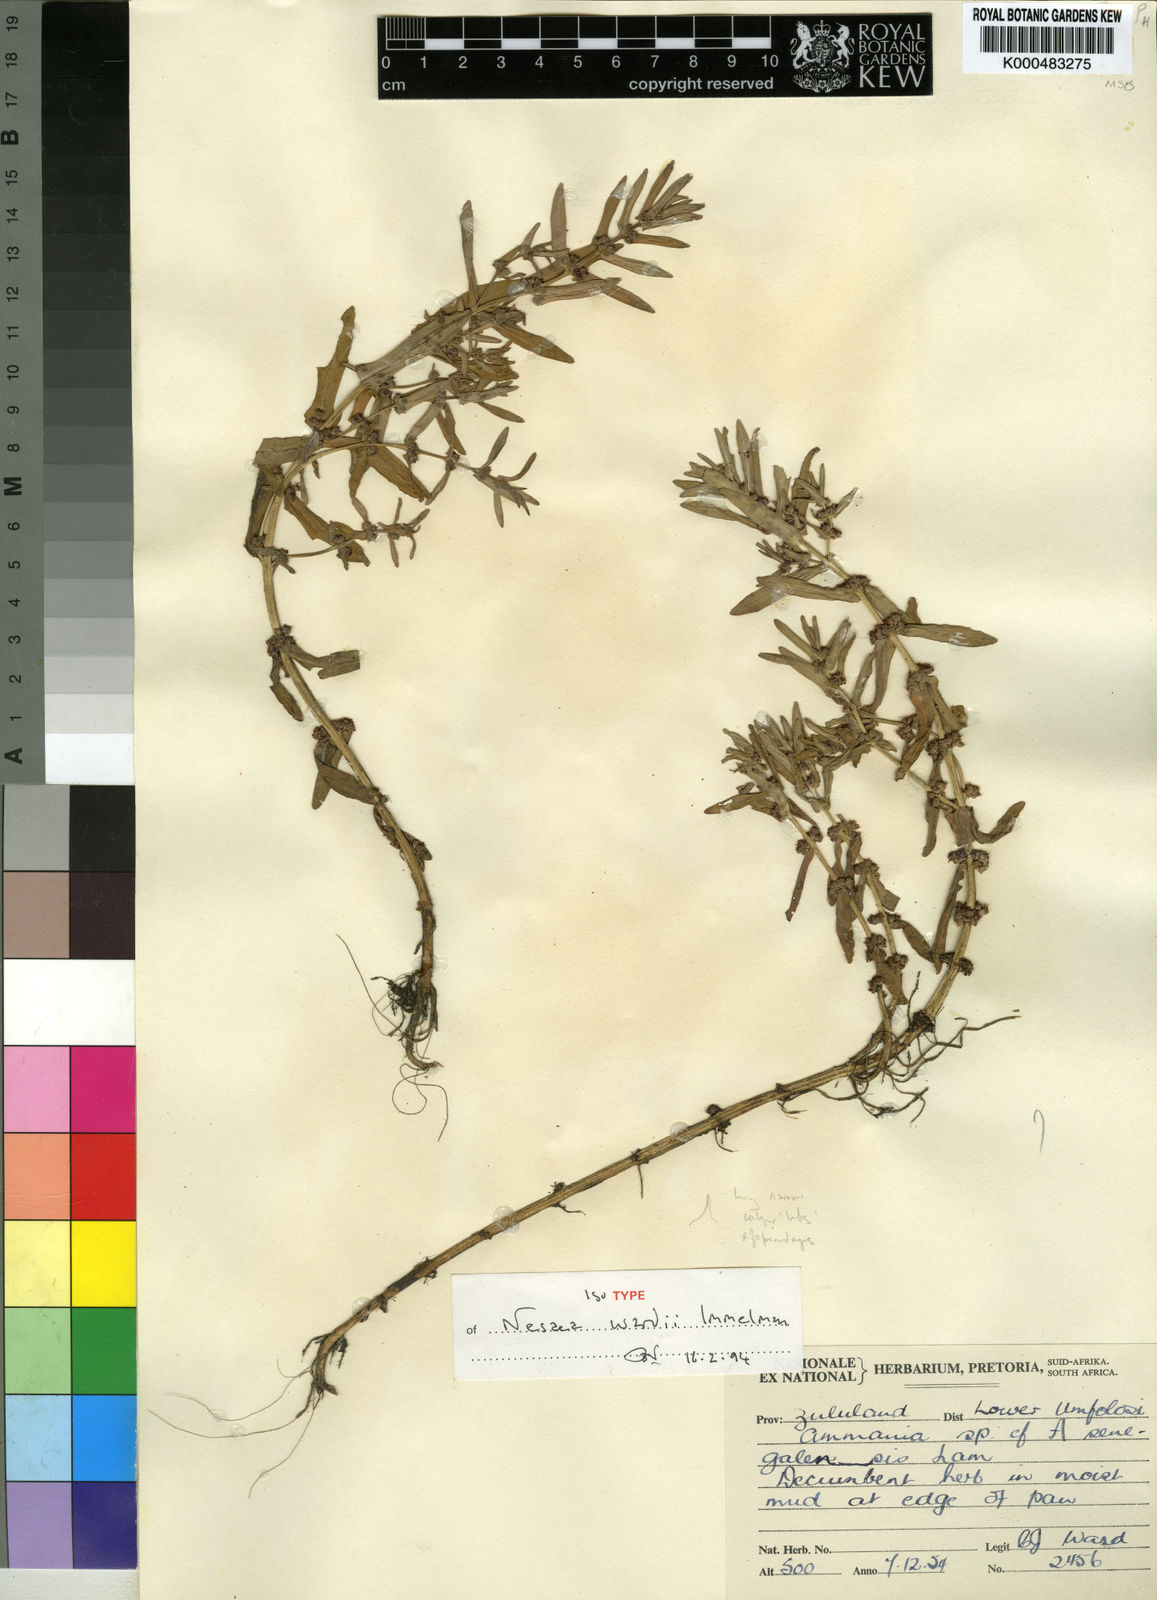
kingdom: Plantae
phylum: Tracheophyta
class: Magnoliopsida
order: Malpighiales
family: Passifloraceae
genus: Adenia
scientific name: Adenia wilmsii
